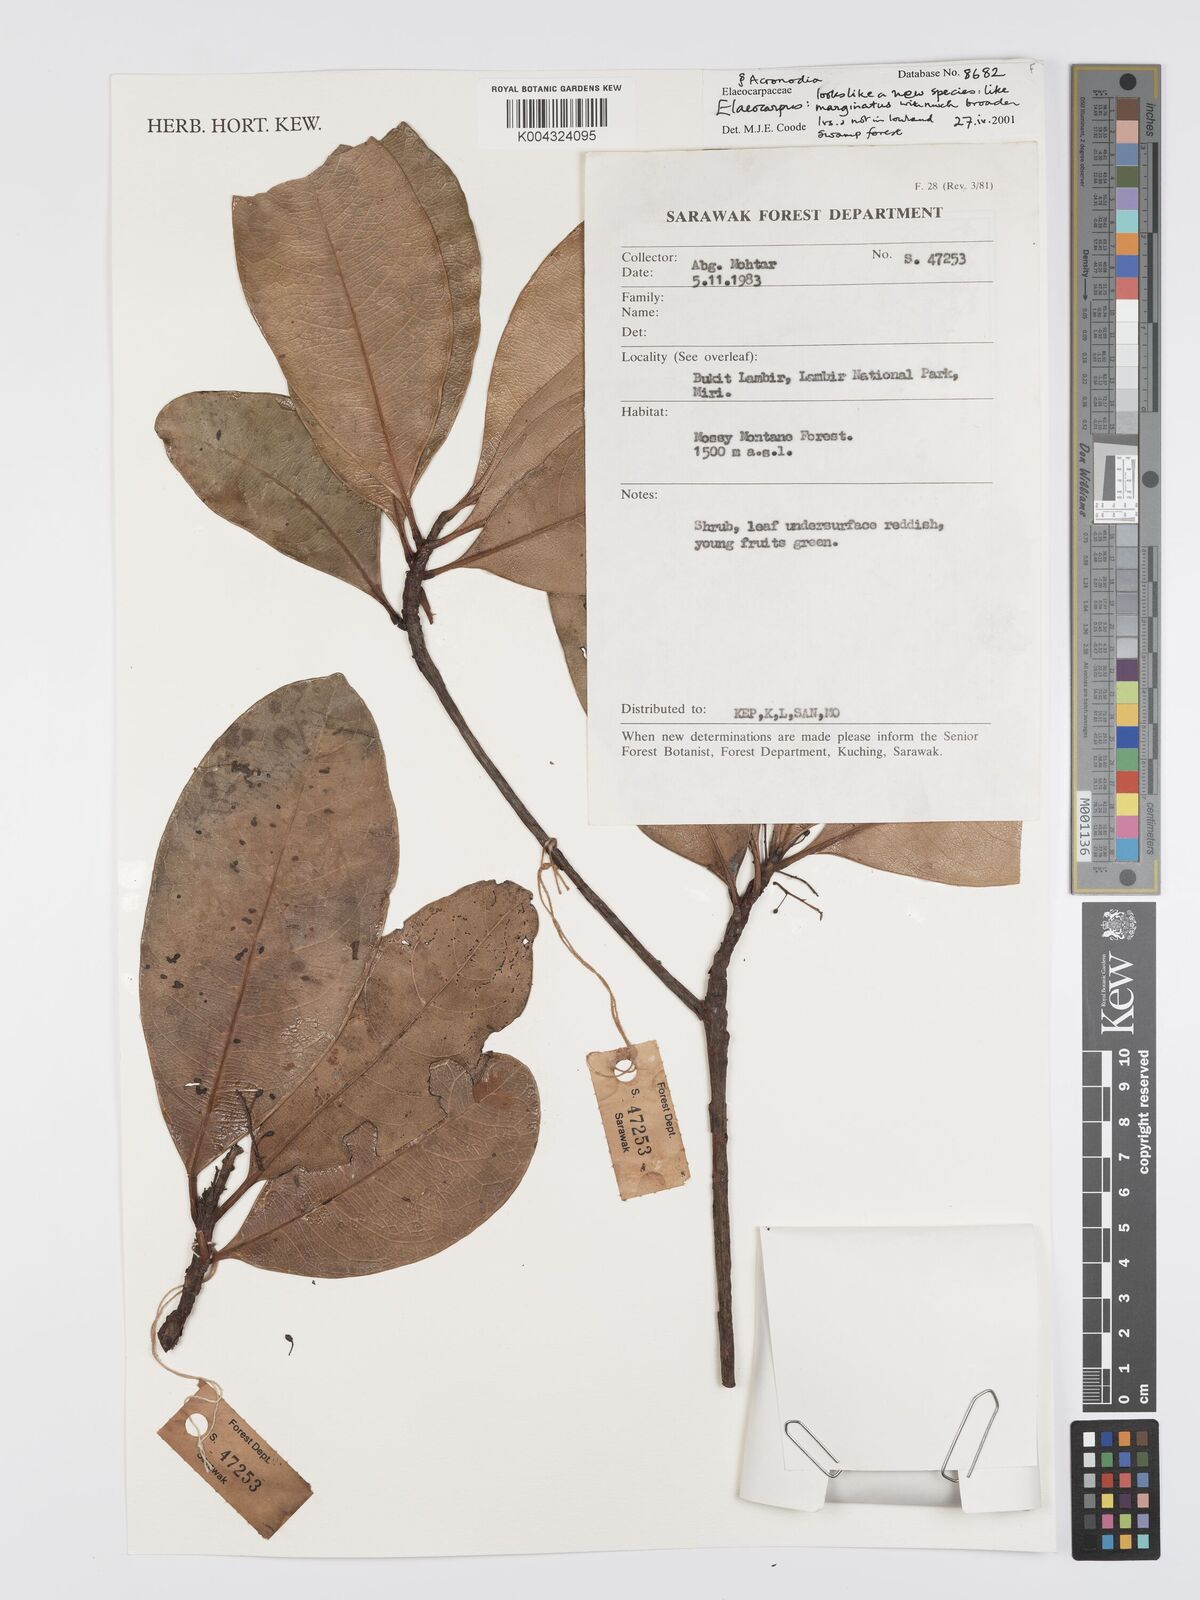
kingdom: Plantae
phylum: Tracheophyta
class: Magnoliopsida
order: Oxalidales
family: Elaeocarpaceae
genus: Elaeocarpus
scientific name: Elaeocarpus marginatus
